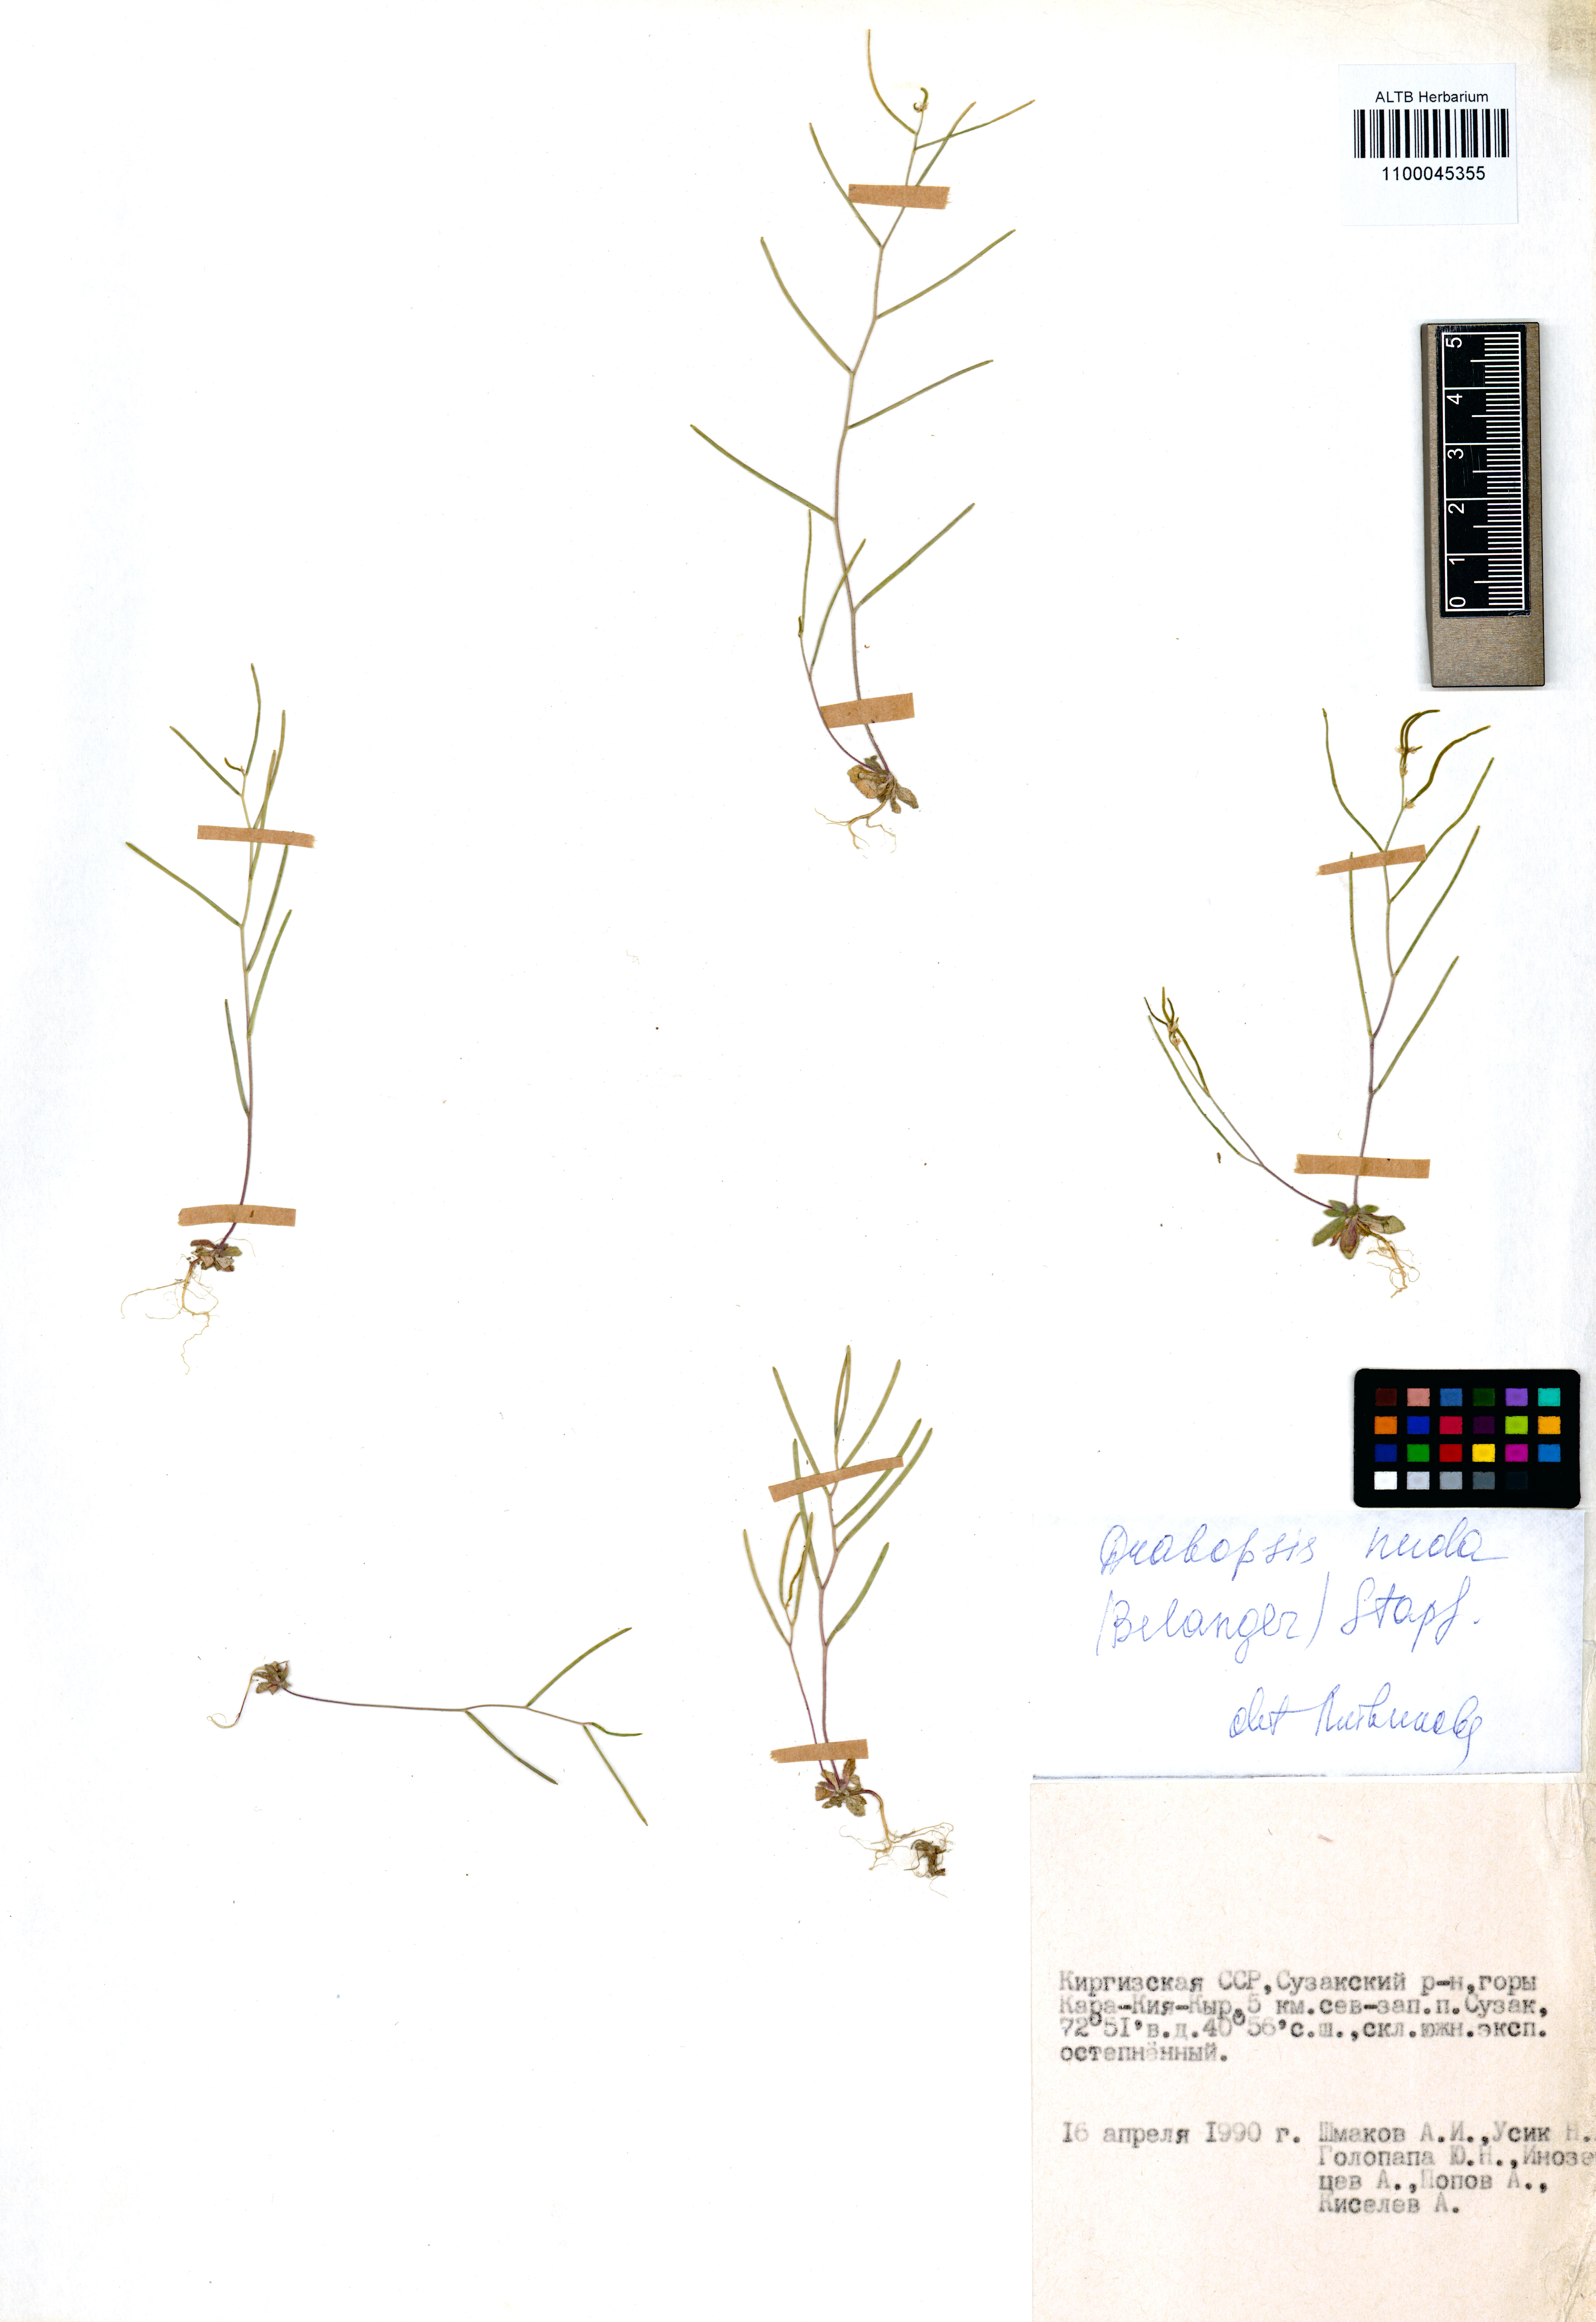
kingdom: Plantae
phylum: Tracheophyta
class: Magnoliopsida
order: Brassicales
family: Brassicaceae
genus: Draba
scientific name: Draba nuda
